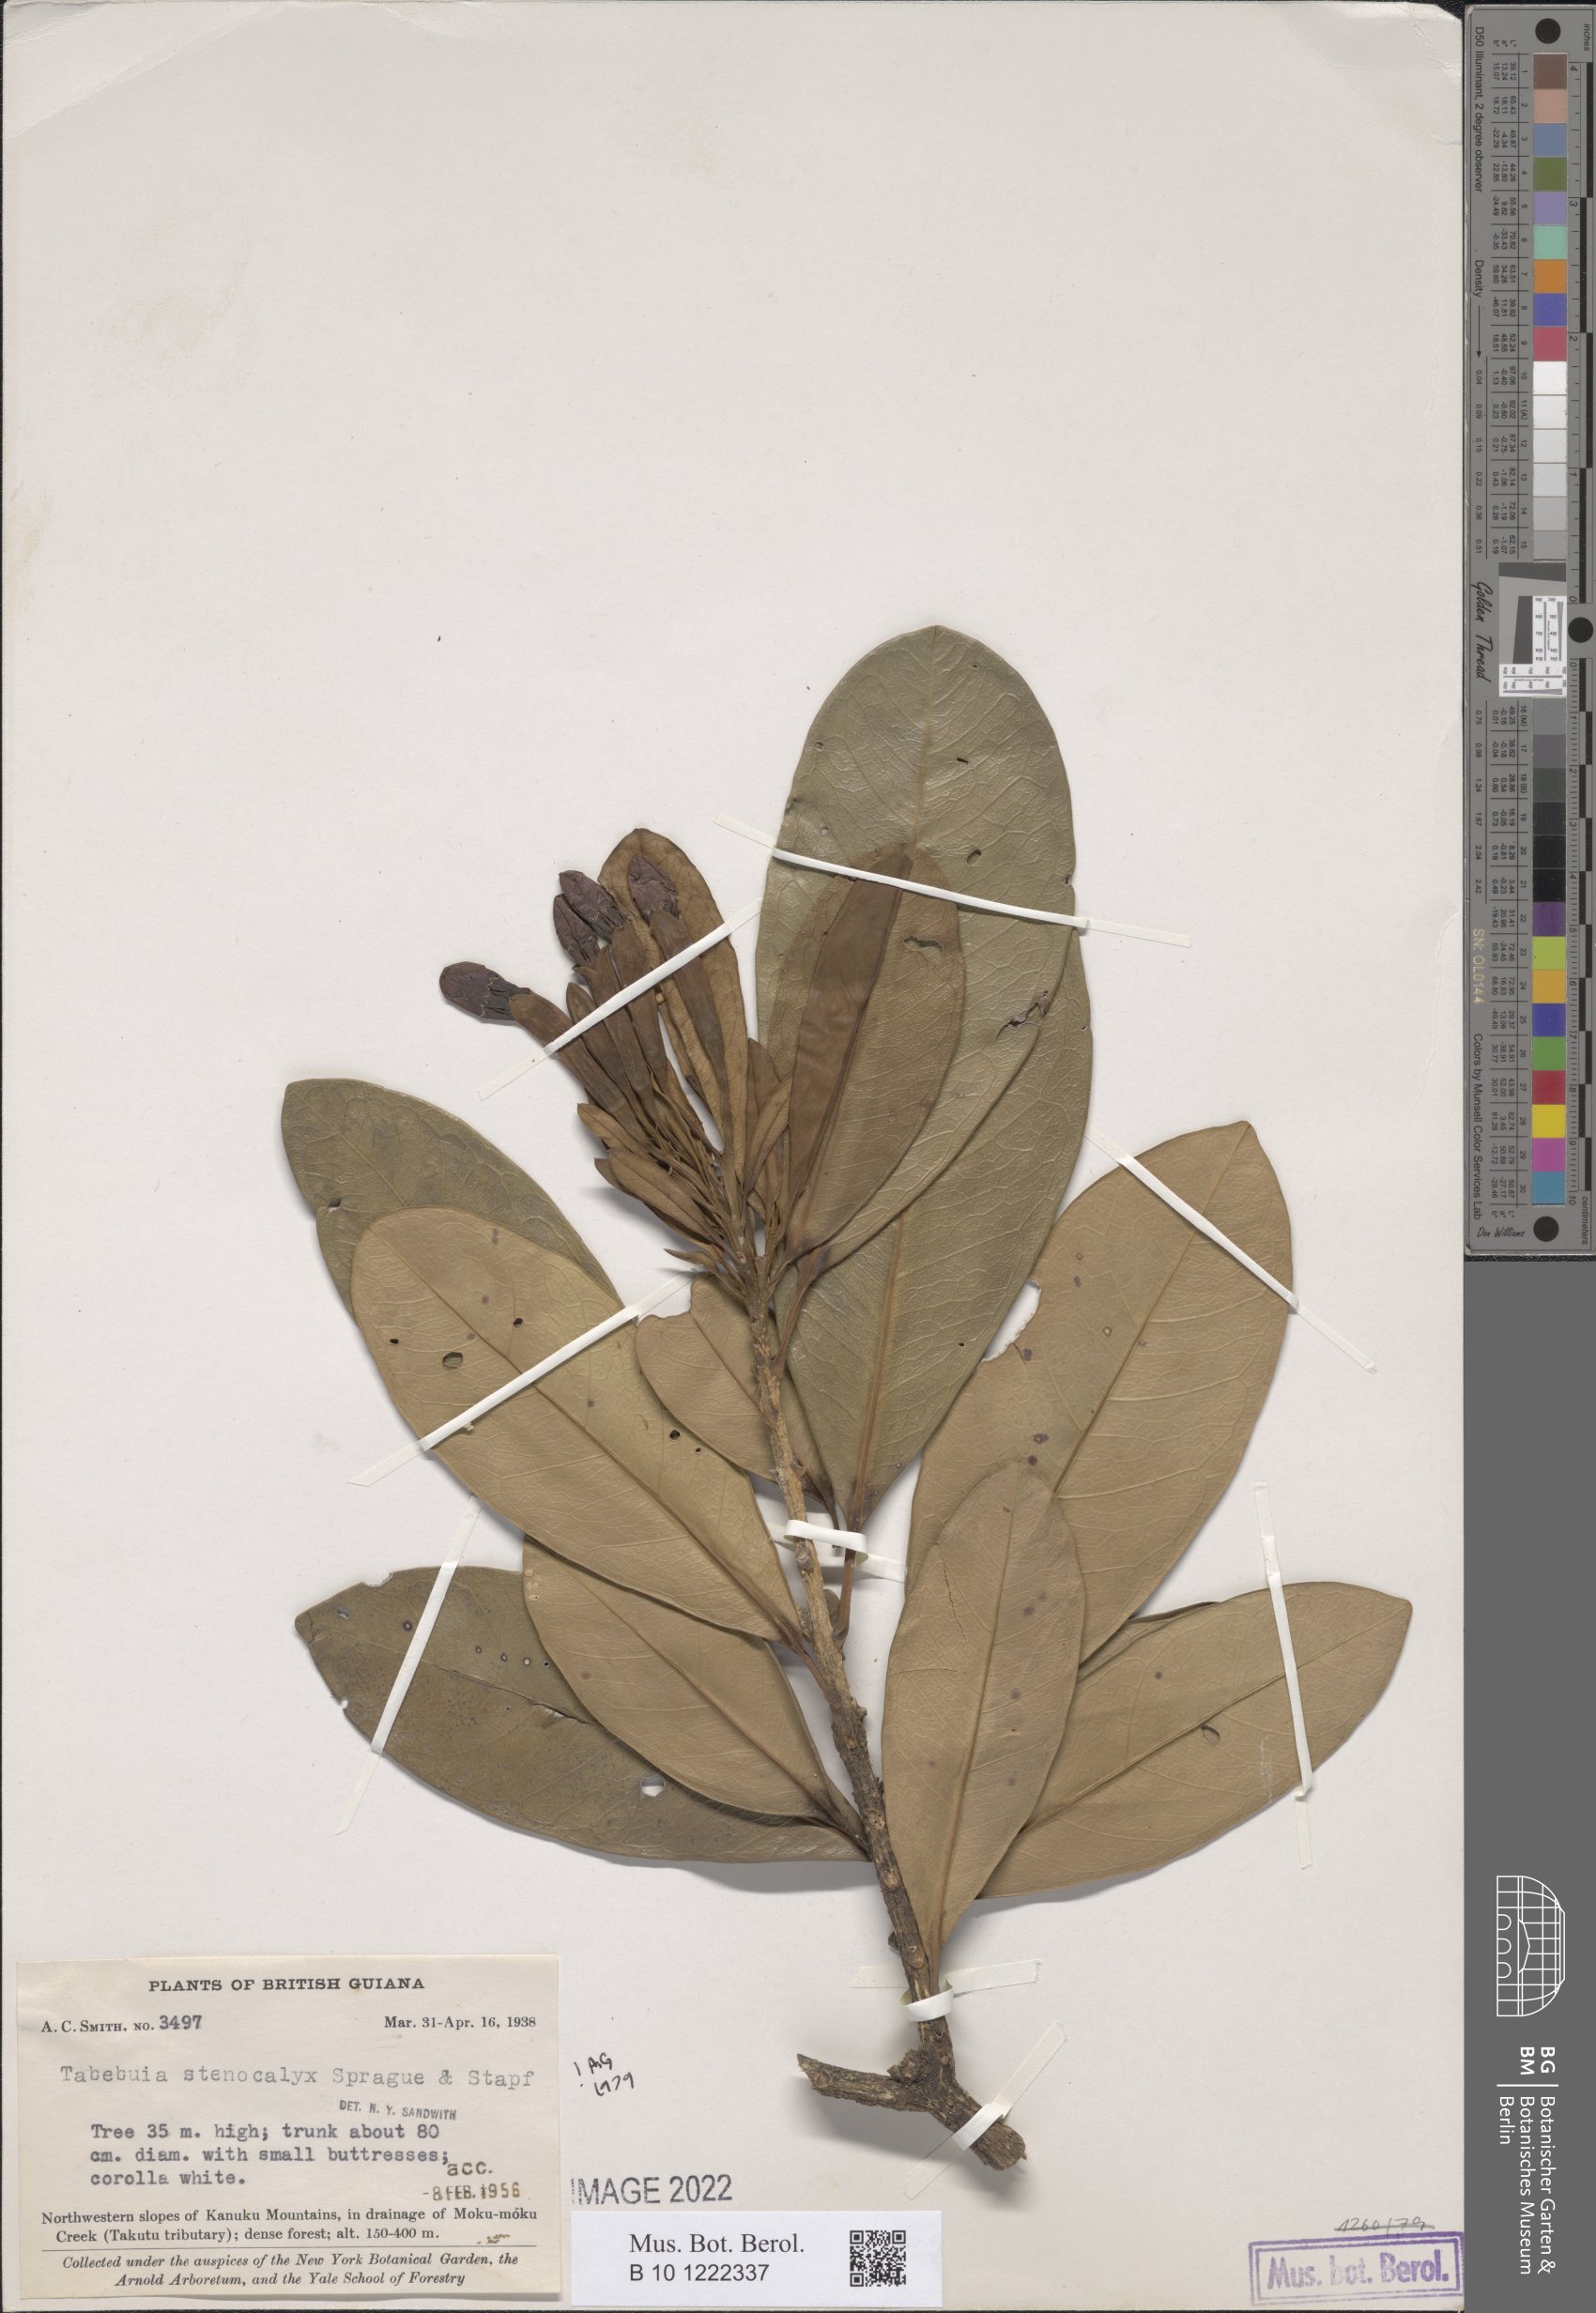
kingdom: Plantae
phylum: Tracheophyta
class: Magnoliopsida
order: Lamiales
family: Bignoniaceae
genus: Tabebuia
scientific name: Tabebuia stenocalyx
